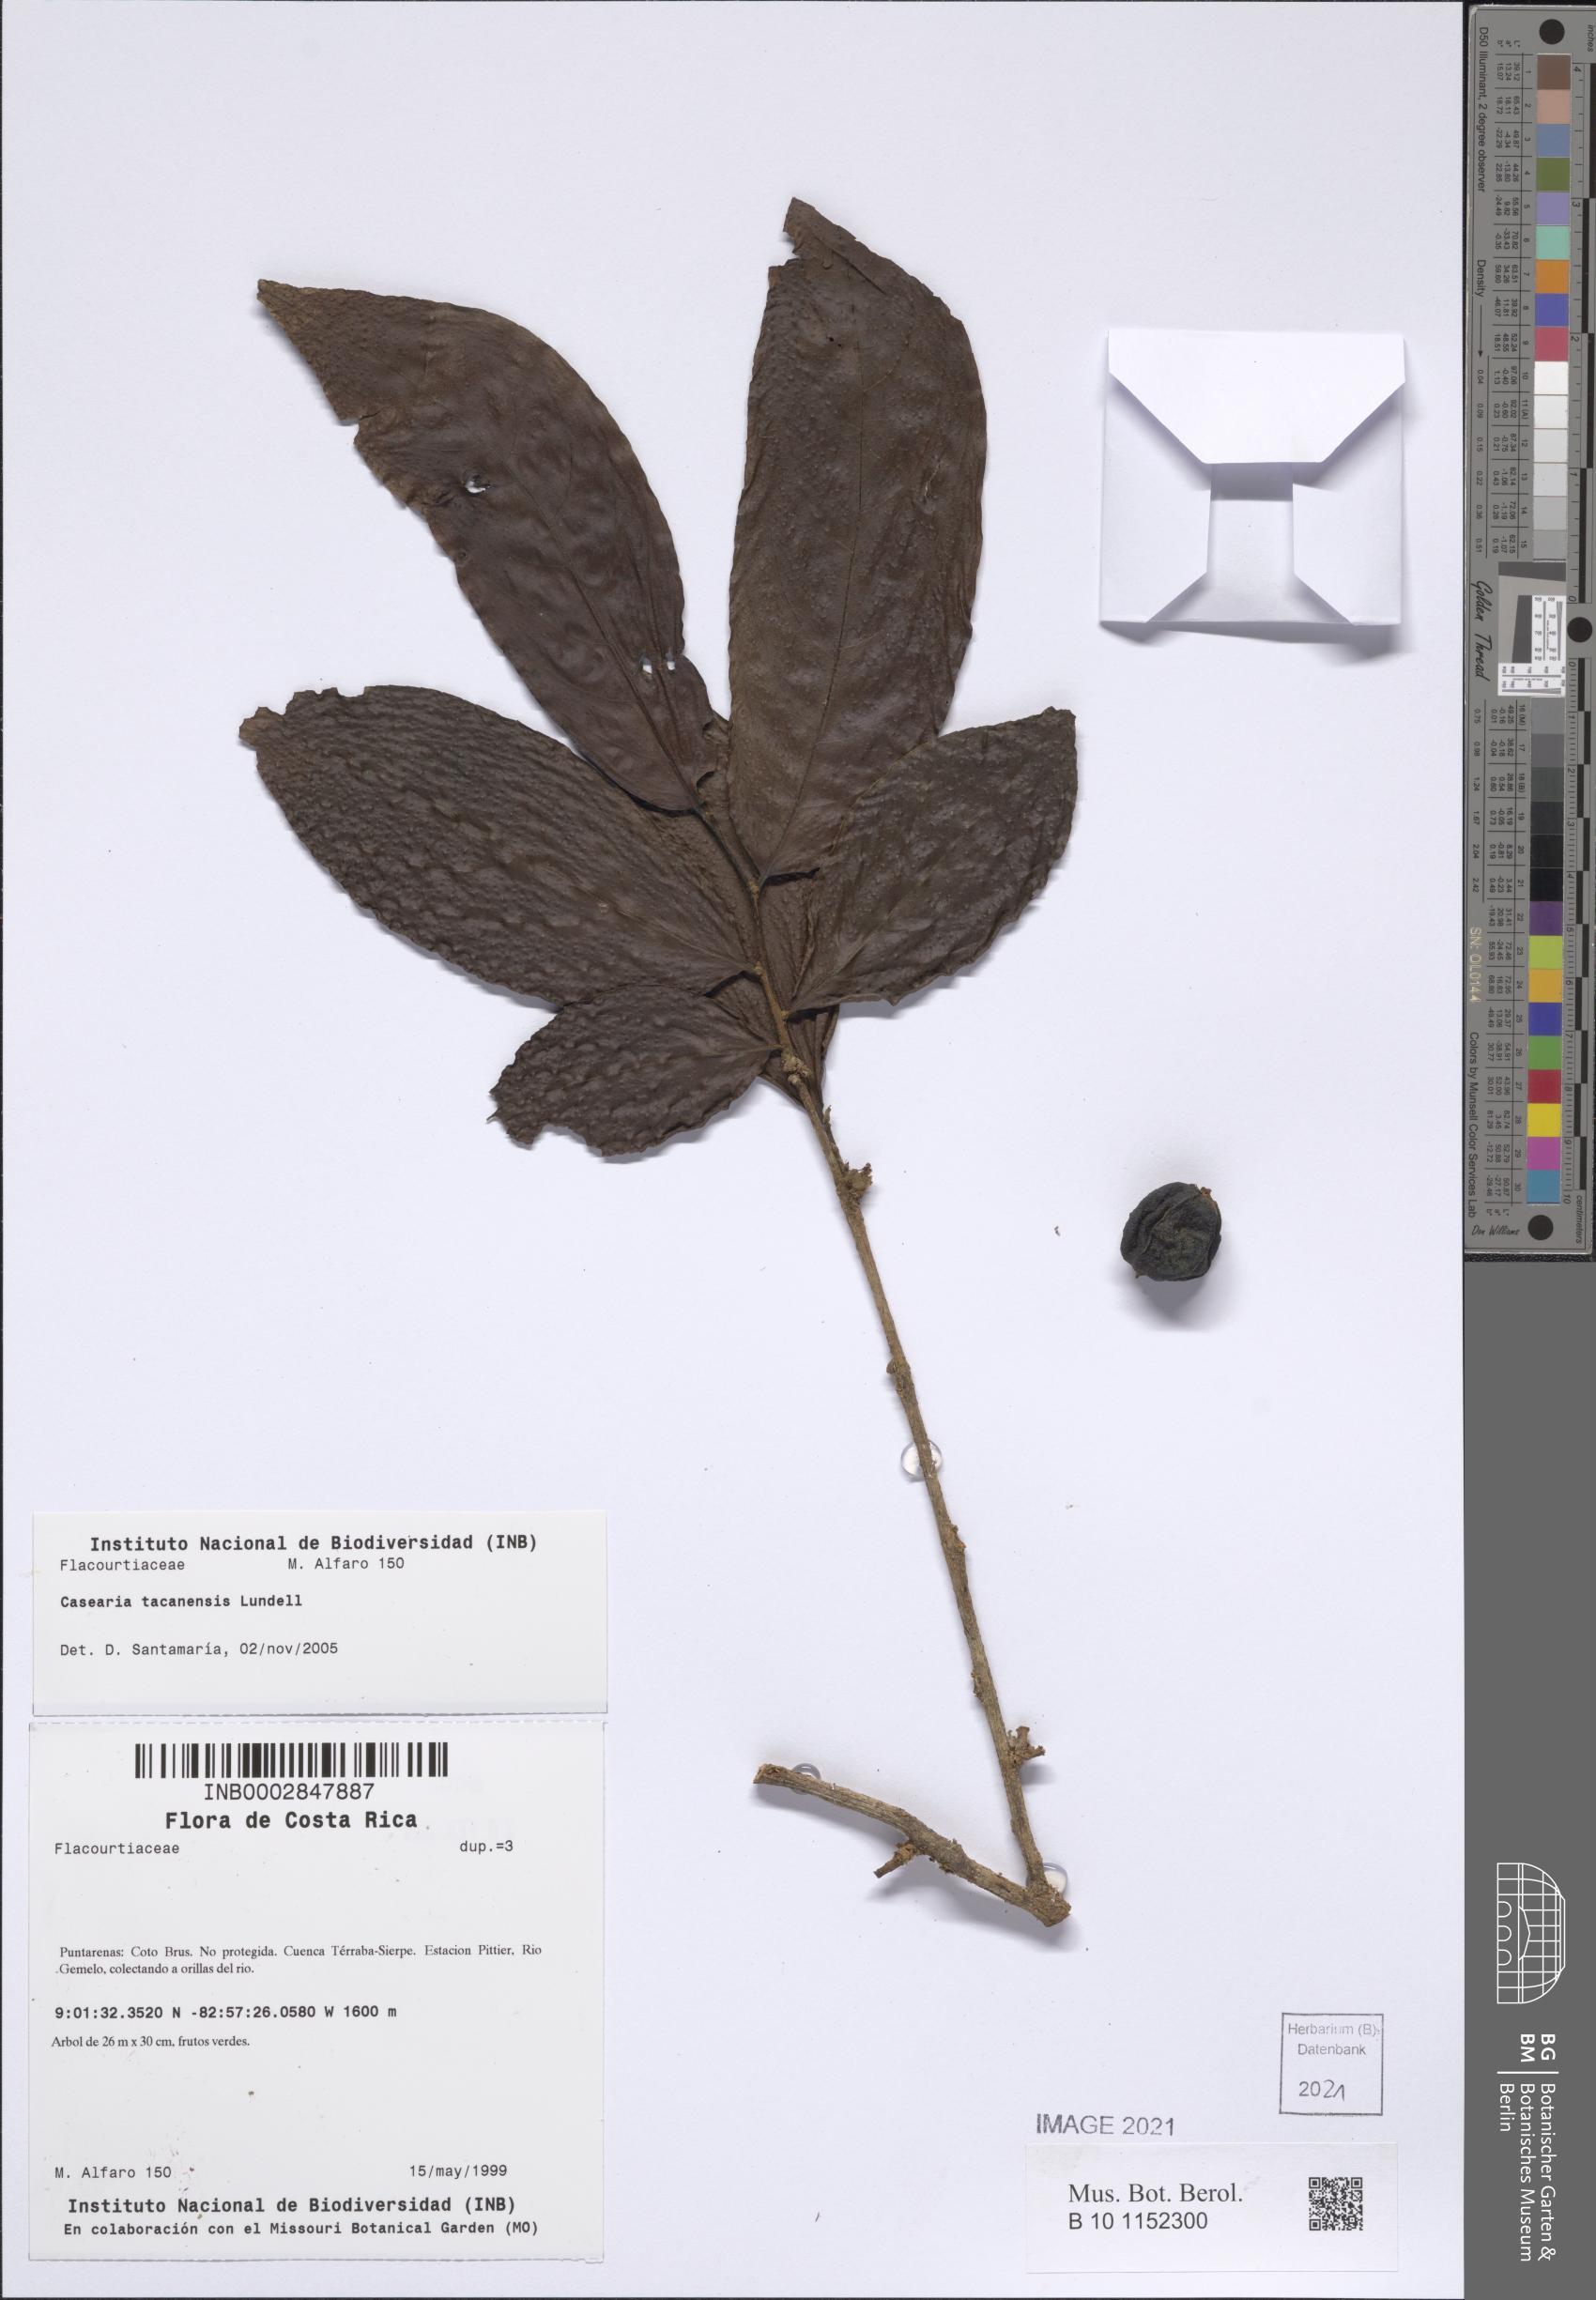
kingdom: Plantae
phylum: Tracheophyta
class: Magnoliopsida
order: Malpighiales
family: Salicaceae
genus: Casearia
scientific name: Casearia tacanensis
